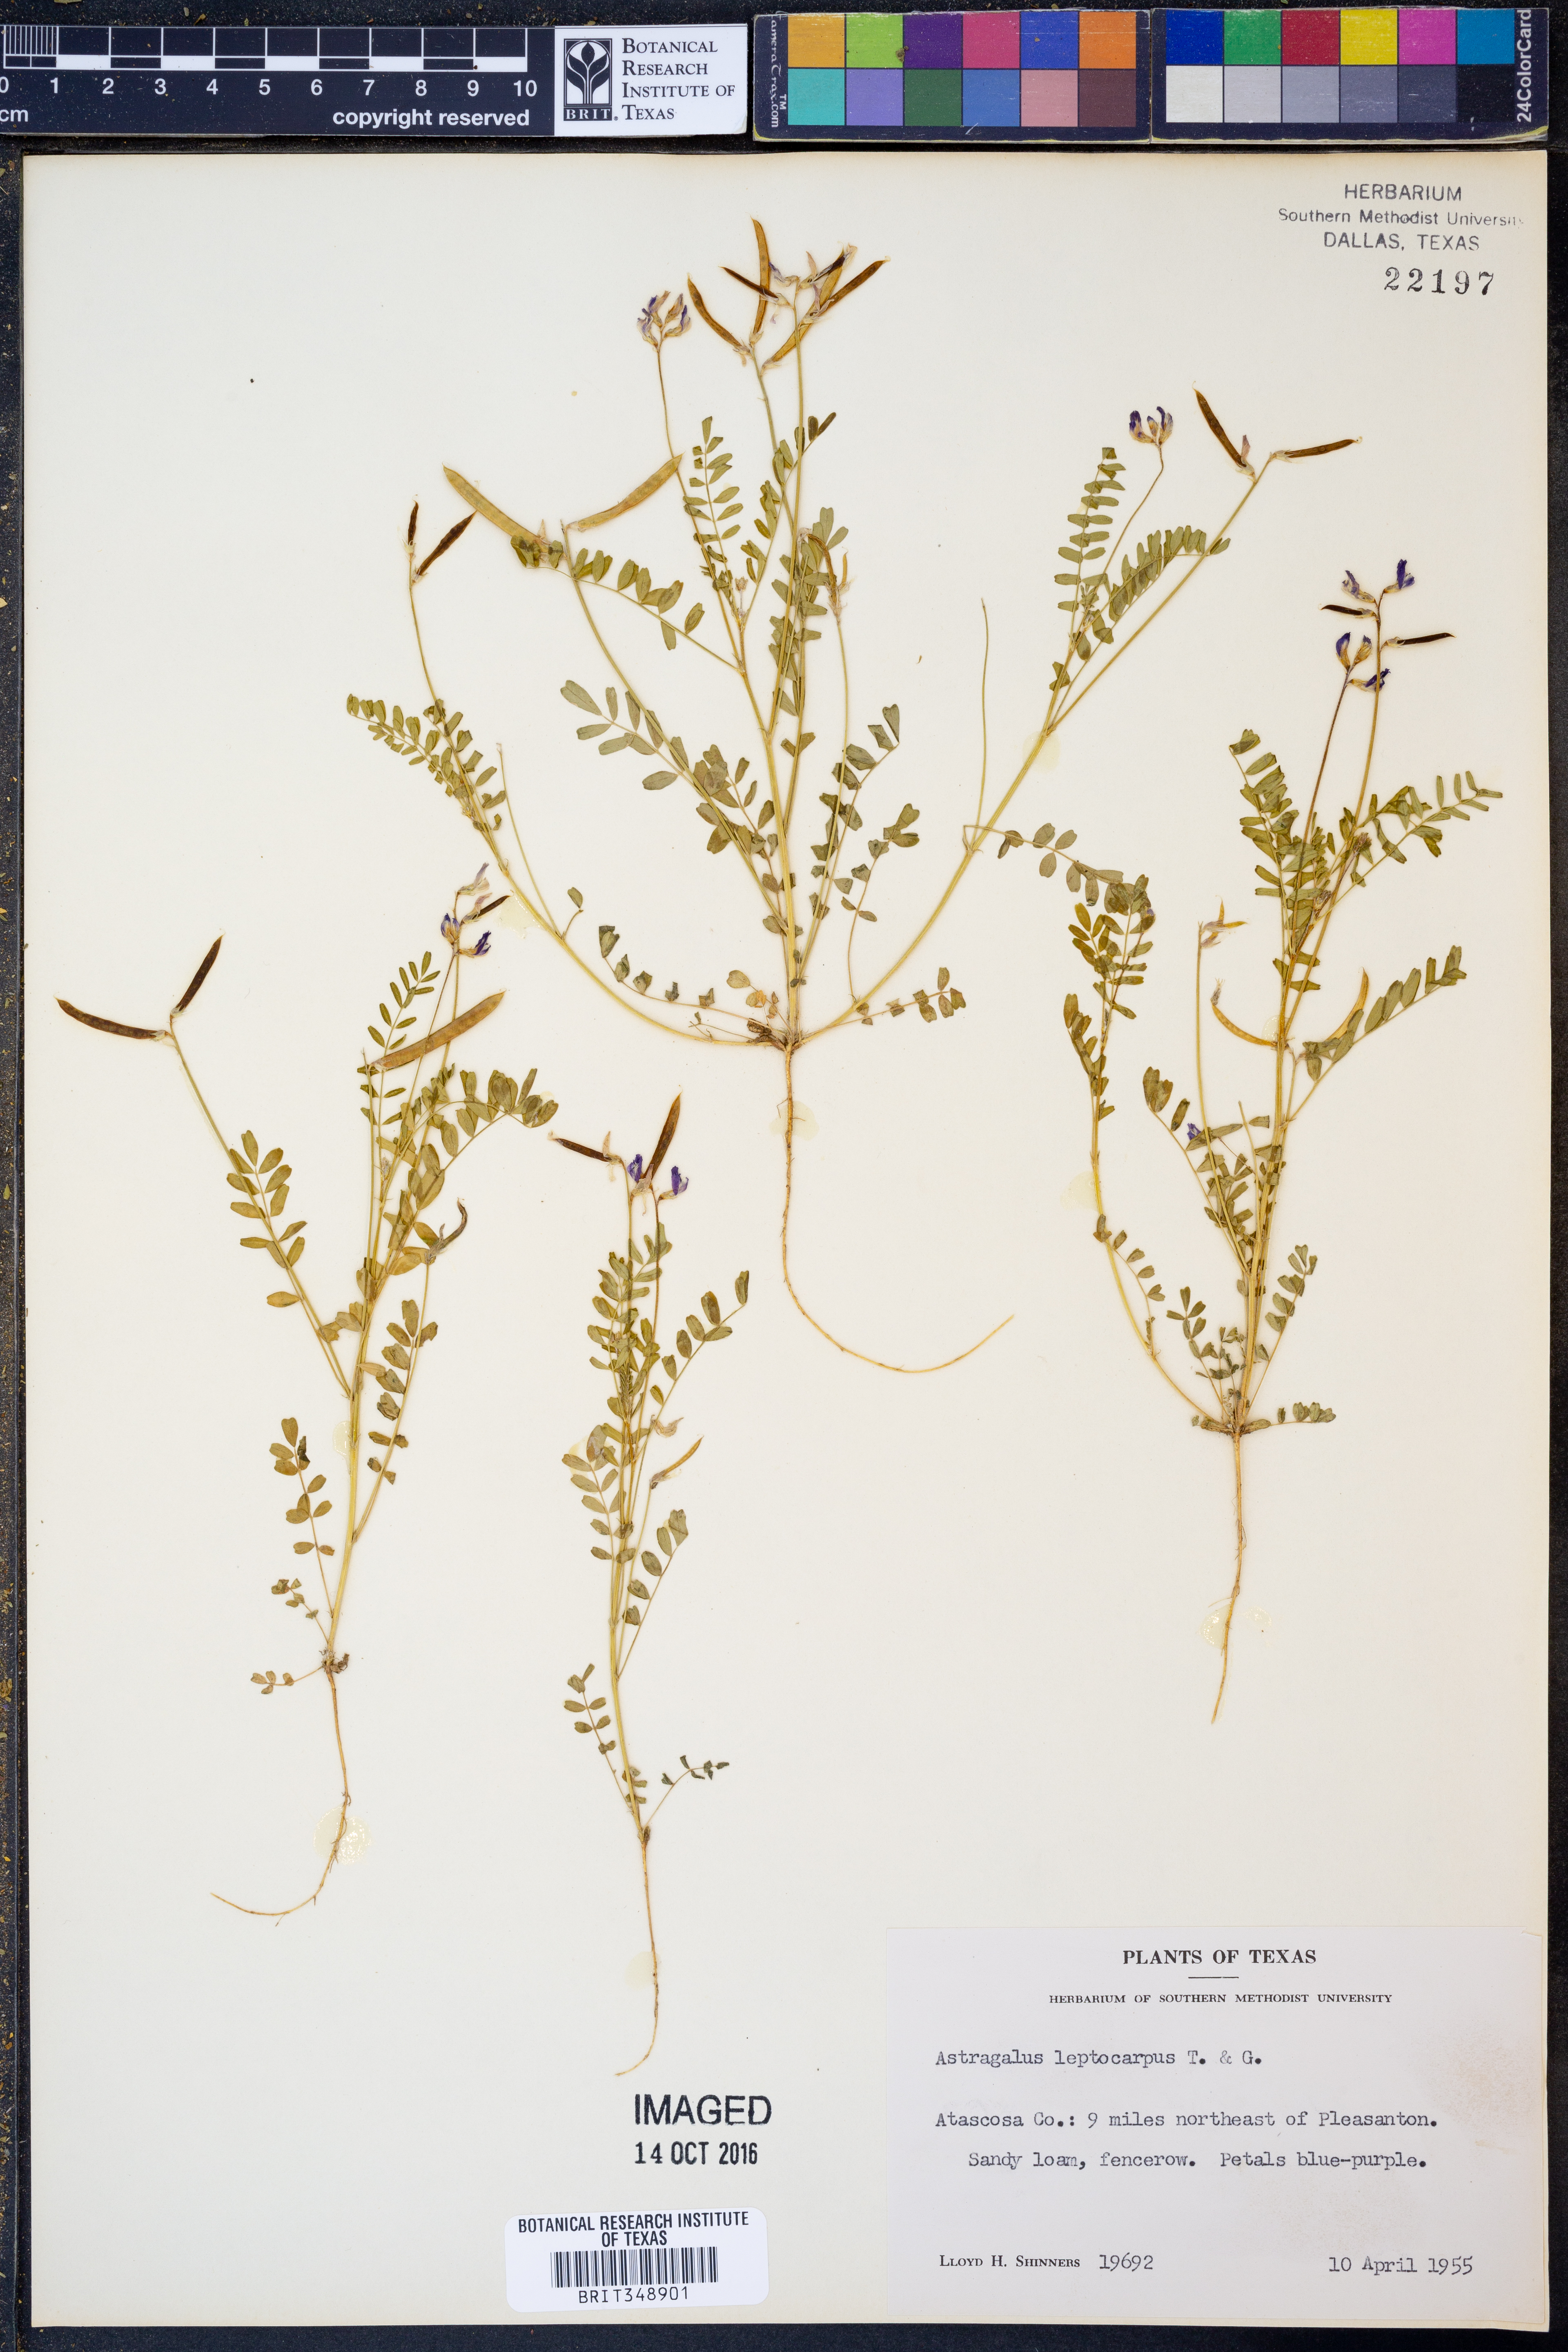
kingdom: Plantae
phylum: Tracheophyta
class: Magnoliopsida
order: Fabales
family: Fabaceae
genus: Astragalus
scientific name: Astragalus leptocarpus
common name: Bodkin milk-vetch
